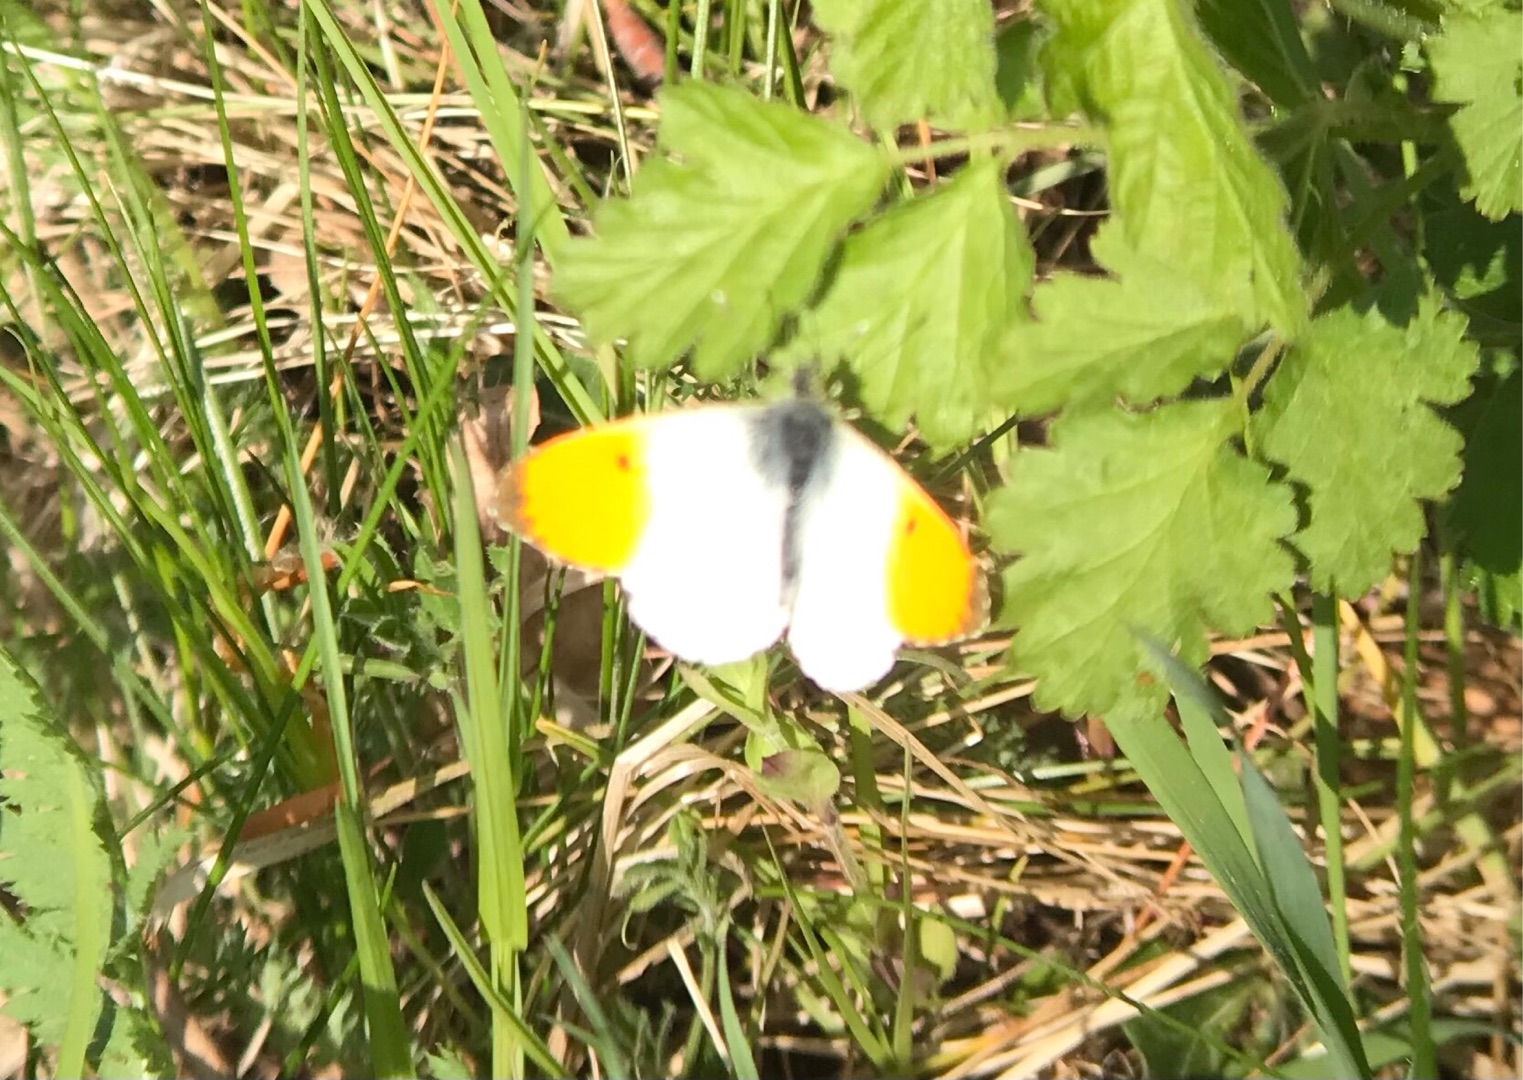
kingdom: Animalia
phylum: Arthropoda
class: Insecta
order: Lepidoptera
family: Pieridae
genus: Anthocharis
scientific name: Anthocharis cardamines
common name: Aurora
